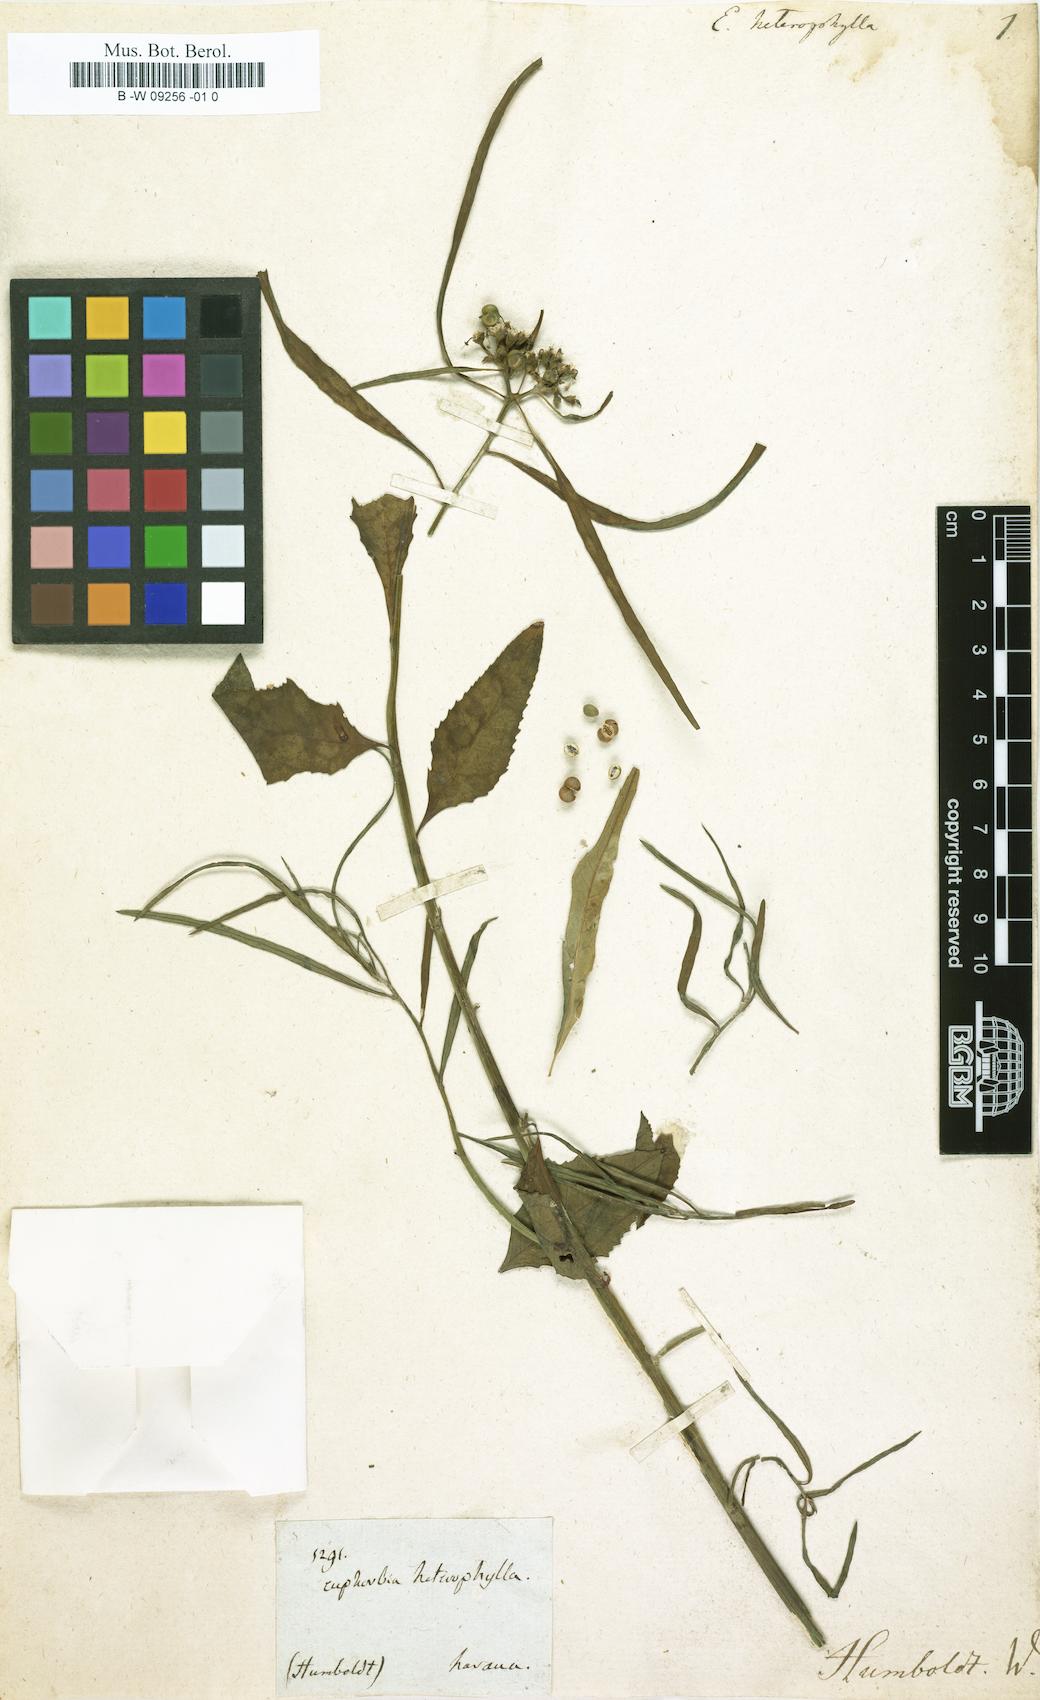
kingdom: Plantae
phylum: Tracheophyta
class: Magnoliopsida
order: Malpighiales
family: Euphorbiaceae
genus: Euphorbia
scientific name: Euphorbia heterophylla
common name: Mexican fireplant
